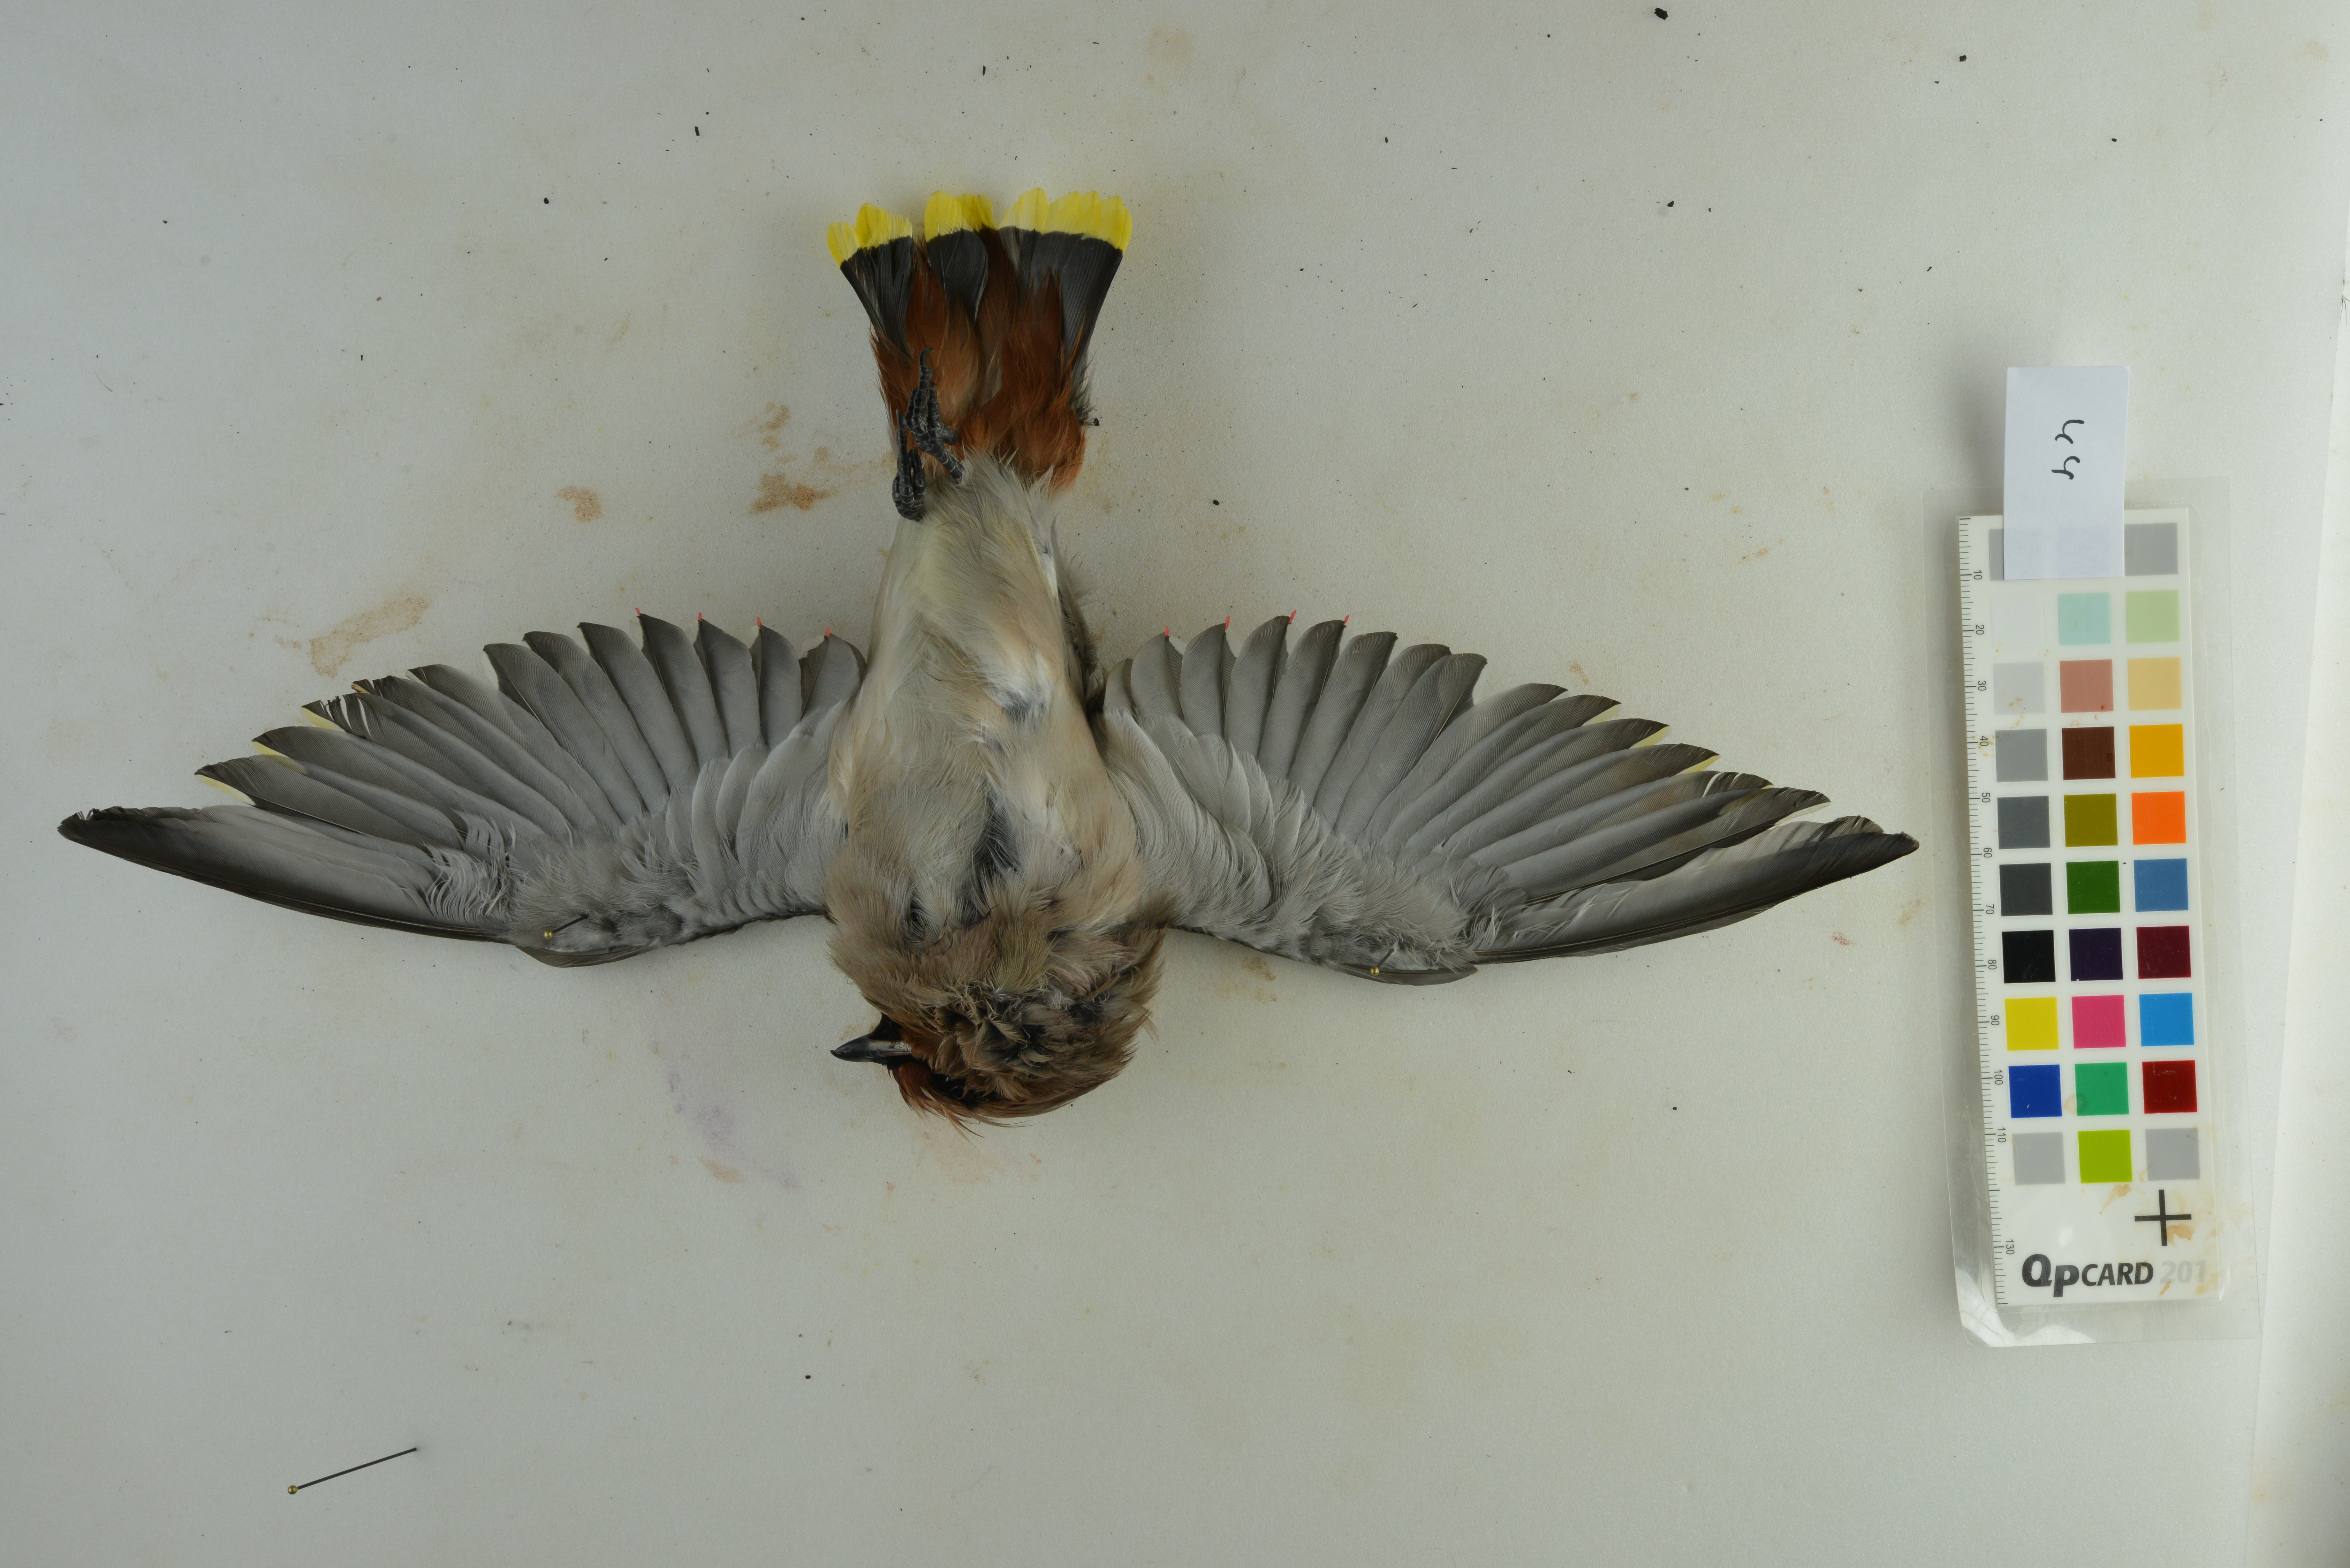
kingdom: Animalia
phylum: Chordata
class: Aves
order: Passeriformes
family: Bombycillidae
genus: Bombycilla
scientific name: Bombycilla garrulus
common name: Bohemian waxwing
